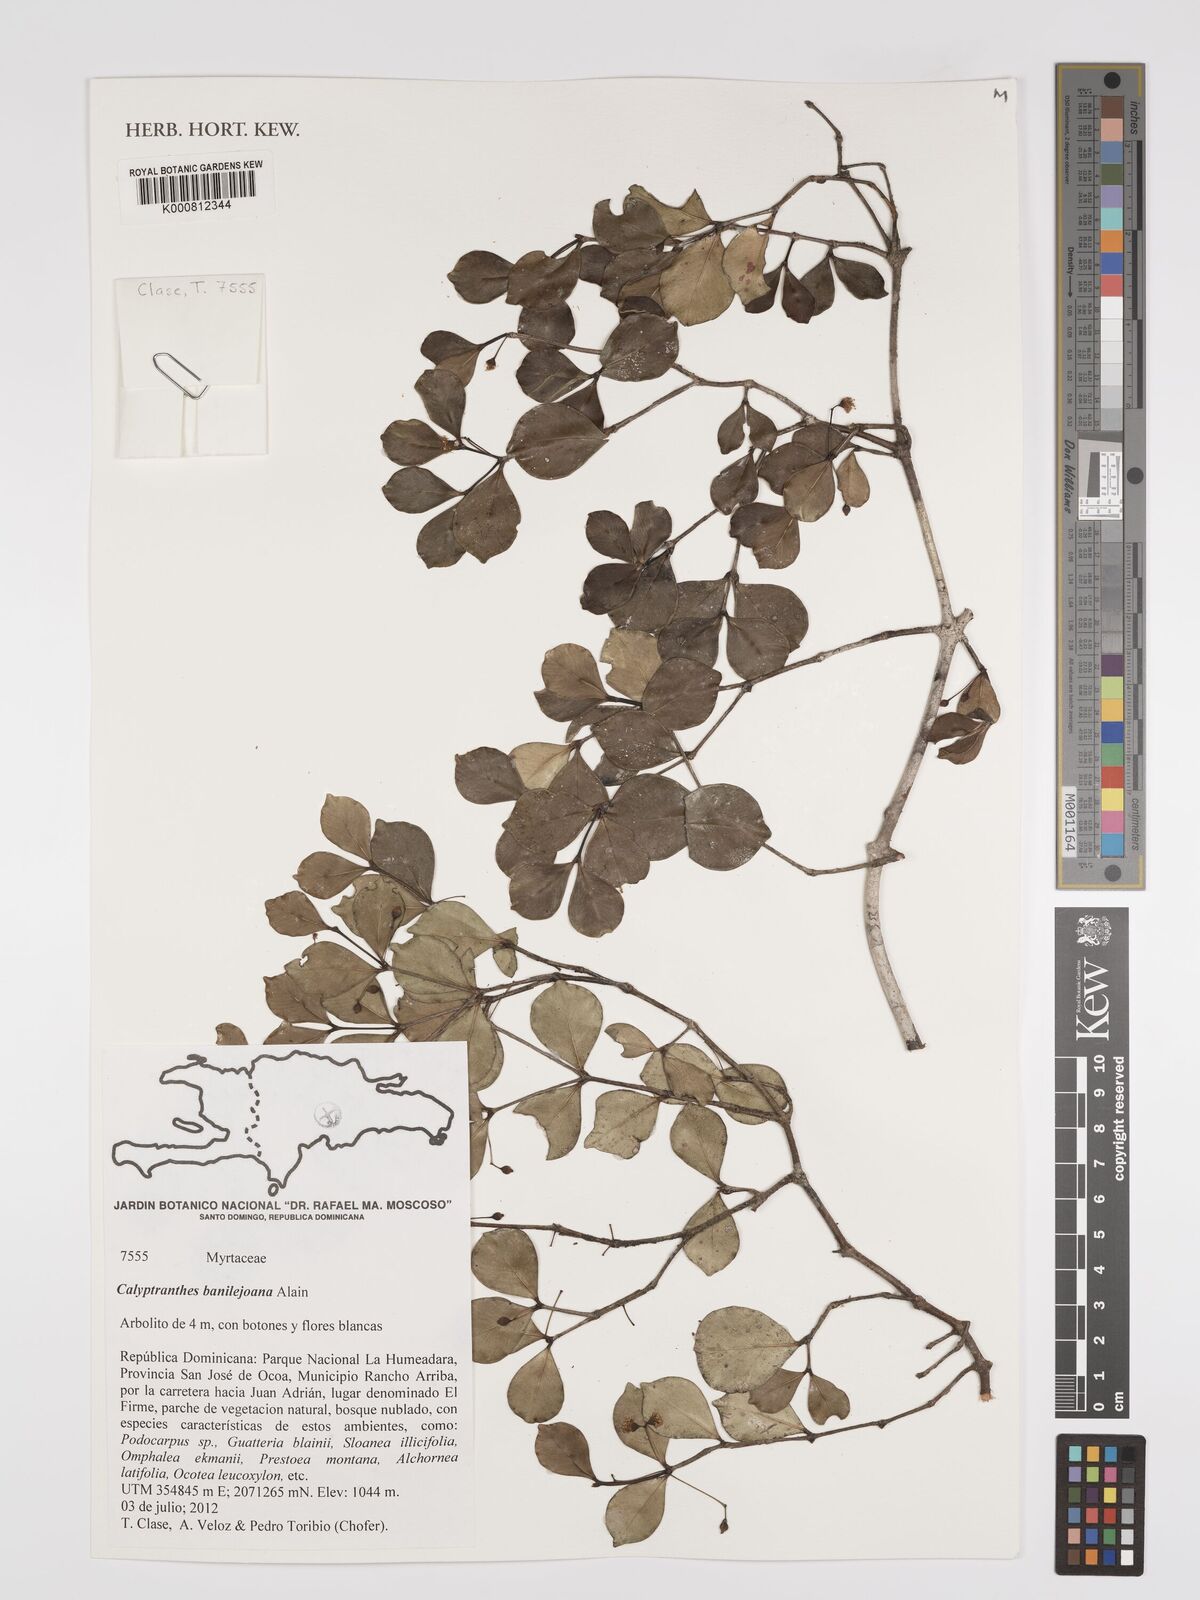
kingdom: Plantae
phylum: Tracheophyta
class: Magnoliopsida
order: Myrtales
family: Myrtaceae
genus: Myrcia
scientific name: Myrcia banilejoana
